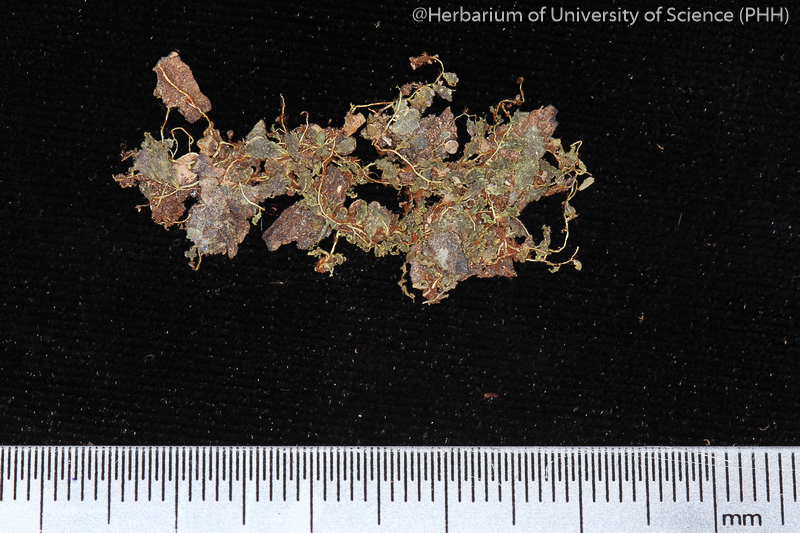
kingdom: Plantae
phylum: Bryophyta
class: Bryopsida
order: Bryales
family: Mniaceae
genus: Plagiomnium
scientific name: Plagiomnium succulentum
